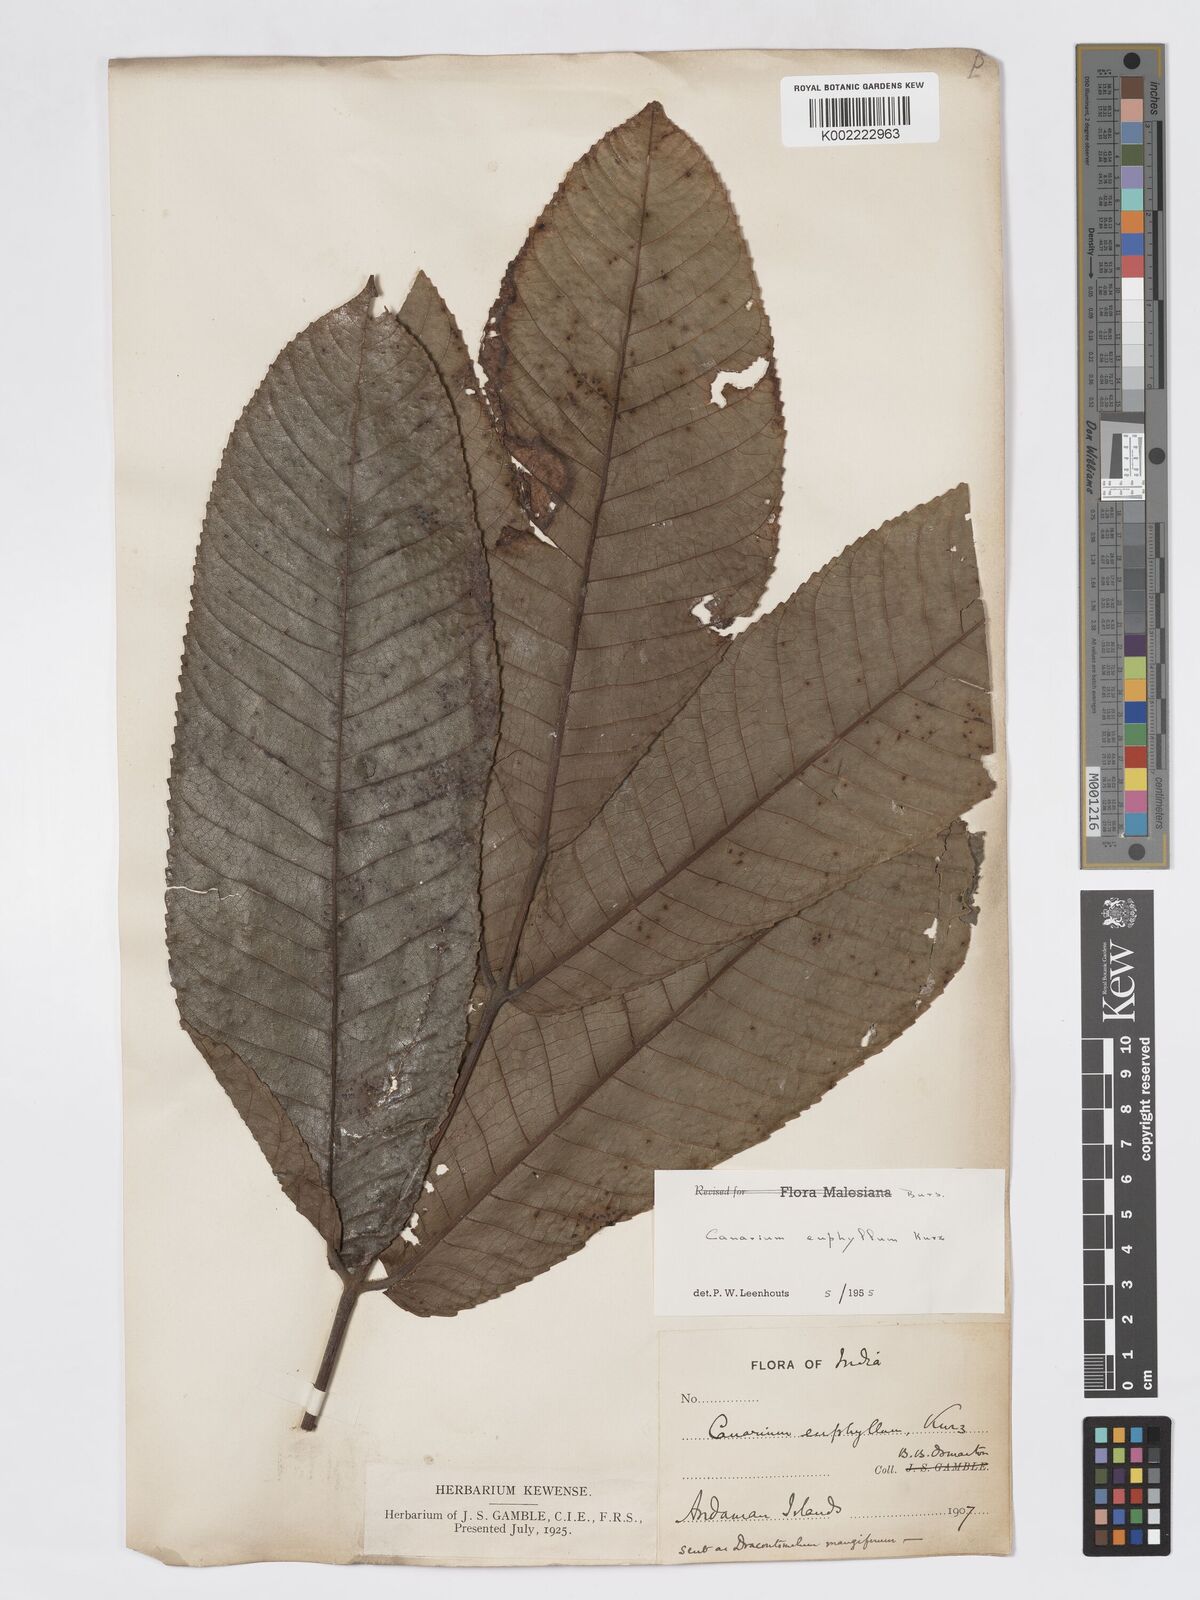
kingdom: Plantae
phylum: Tracheophyta
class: Magnoliopsida
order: Sapindales
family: Burseraceae
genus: Canarium
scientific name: Canarium euphyllum
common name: White dhup
